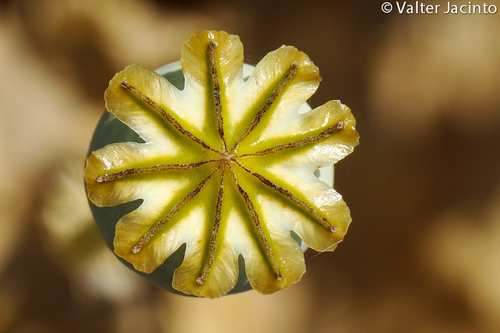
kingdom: Plantae
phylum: Tracheophyta
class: Magnoliopsida
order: Ranunculales
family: Papaveraceae
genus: Papaver
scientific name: Papaver somniferum
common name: Opium poppy
